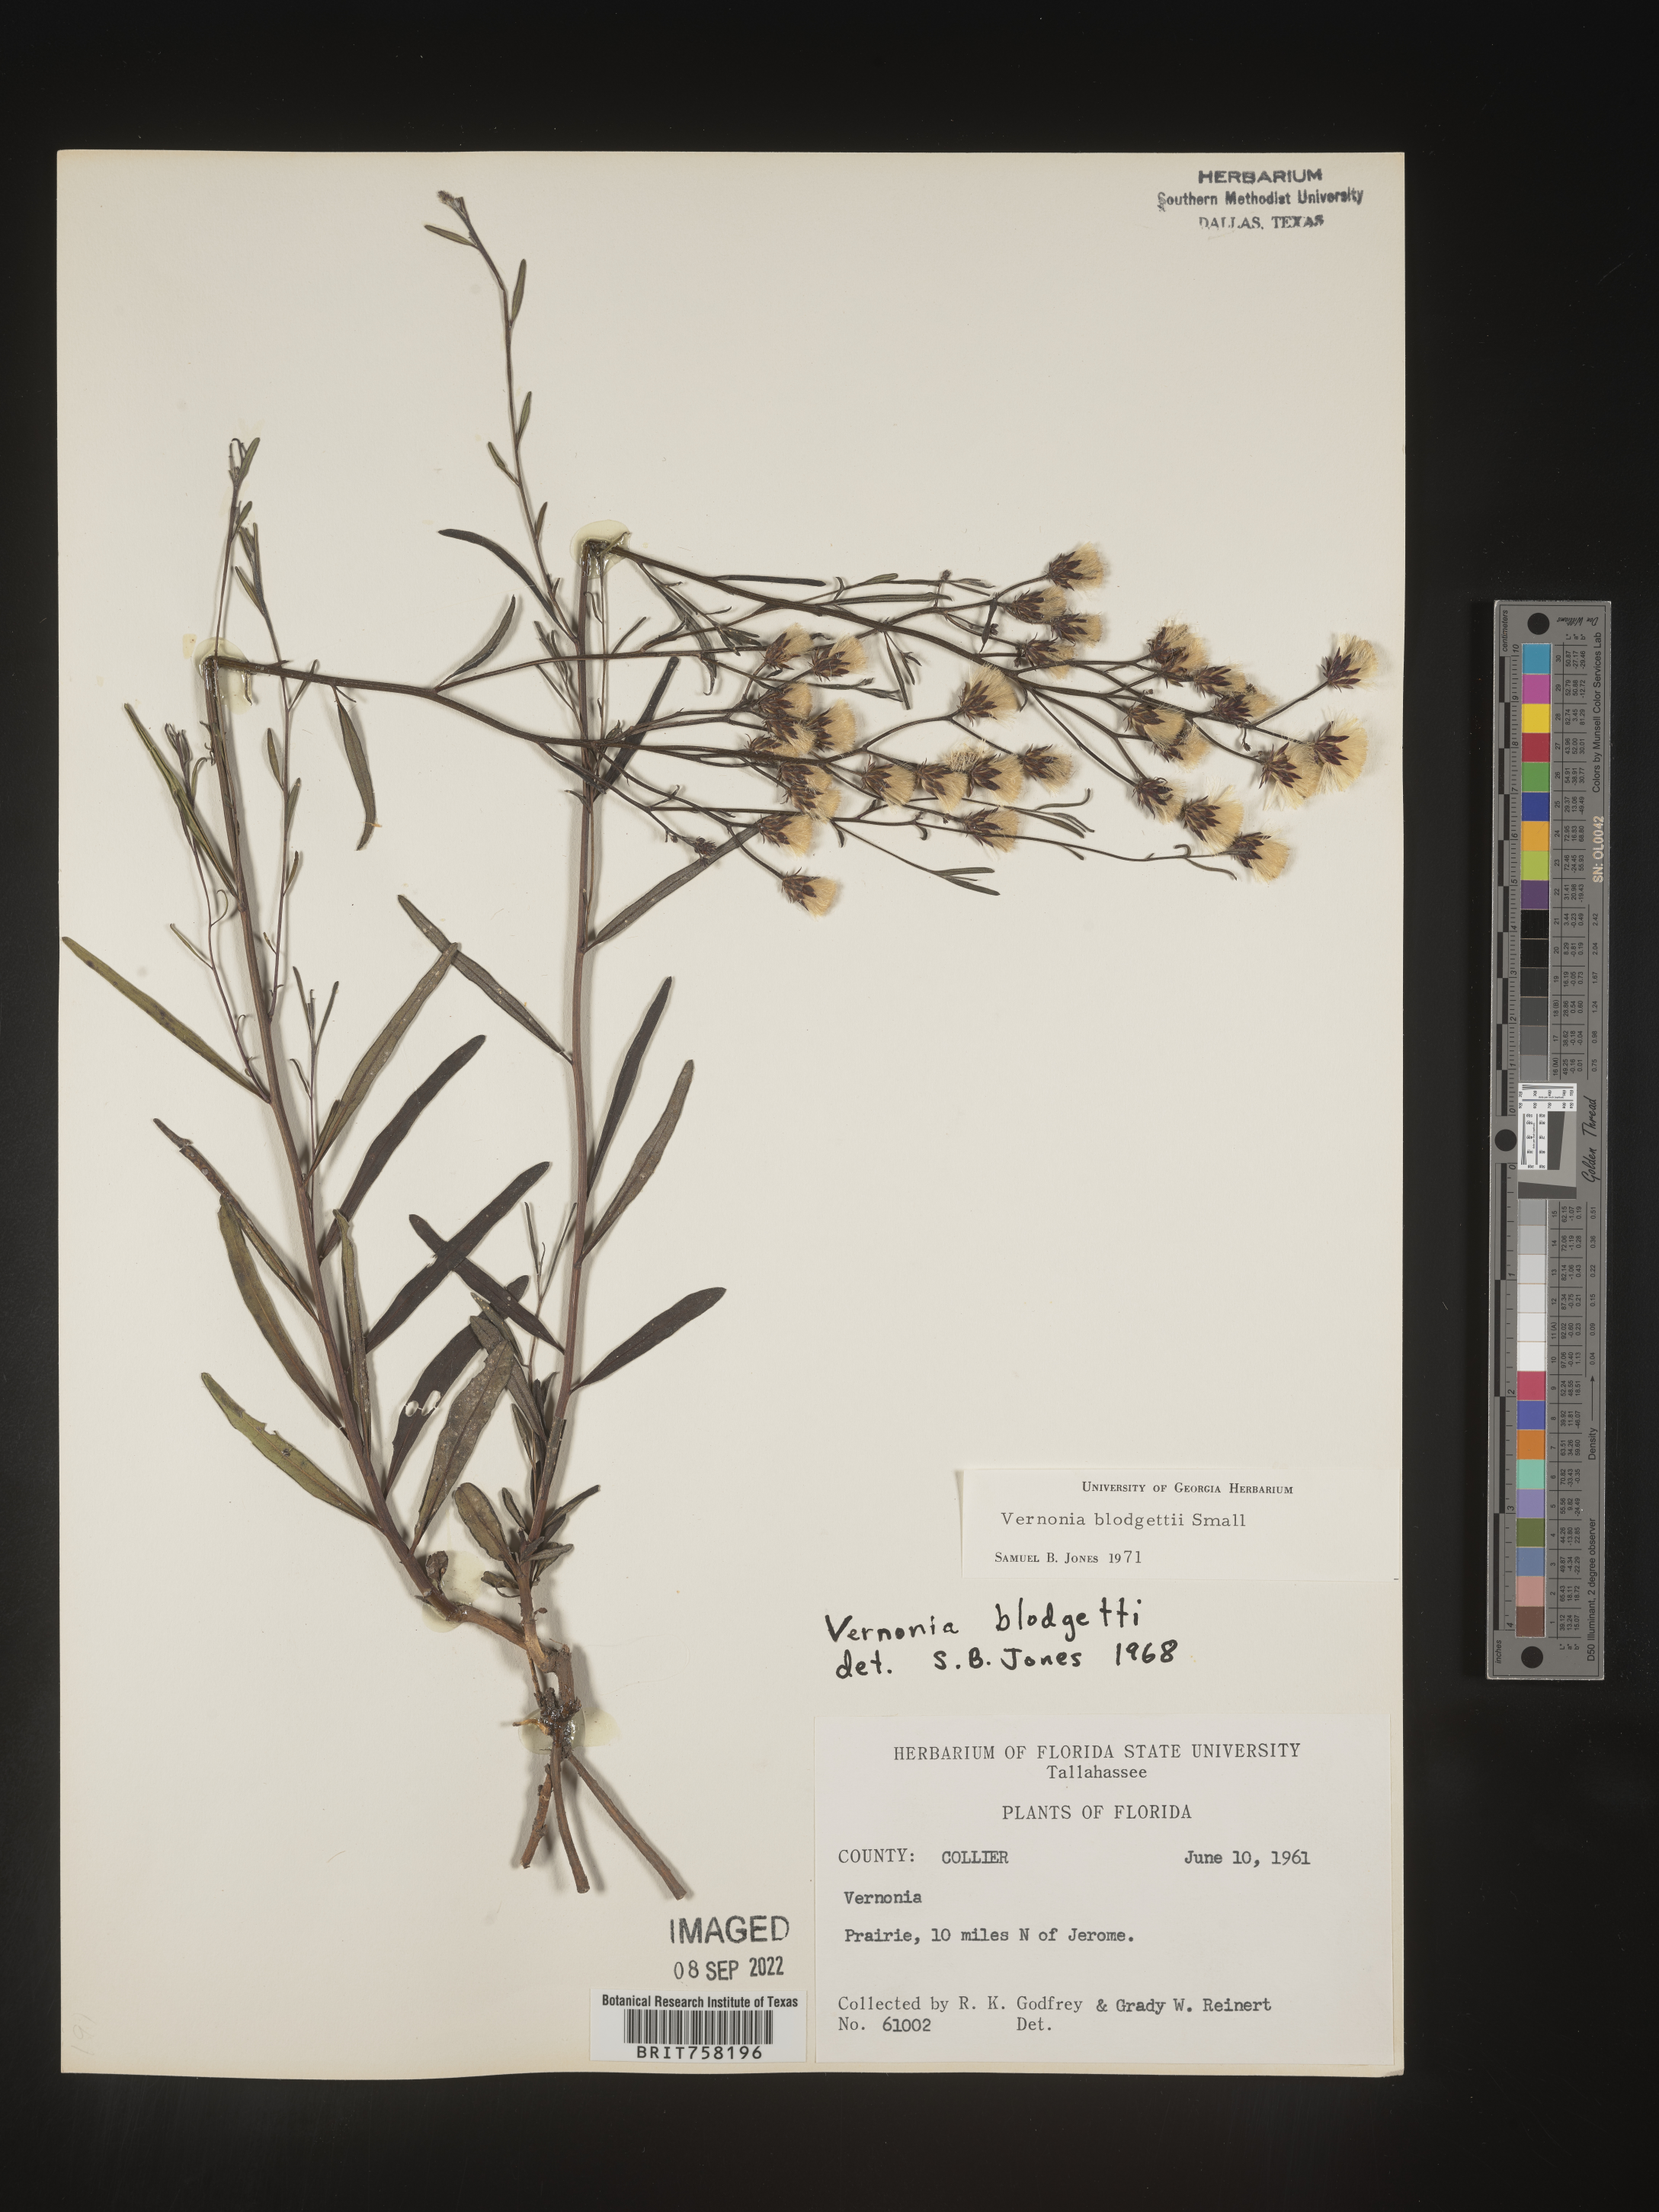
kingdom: Plantae
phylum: Tracheophyta
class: Magnoliopsida
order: Asterales
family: Asteraceae
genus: Vernonia
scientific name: Vernonia blodgettii
